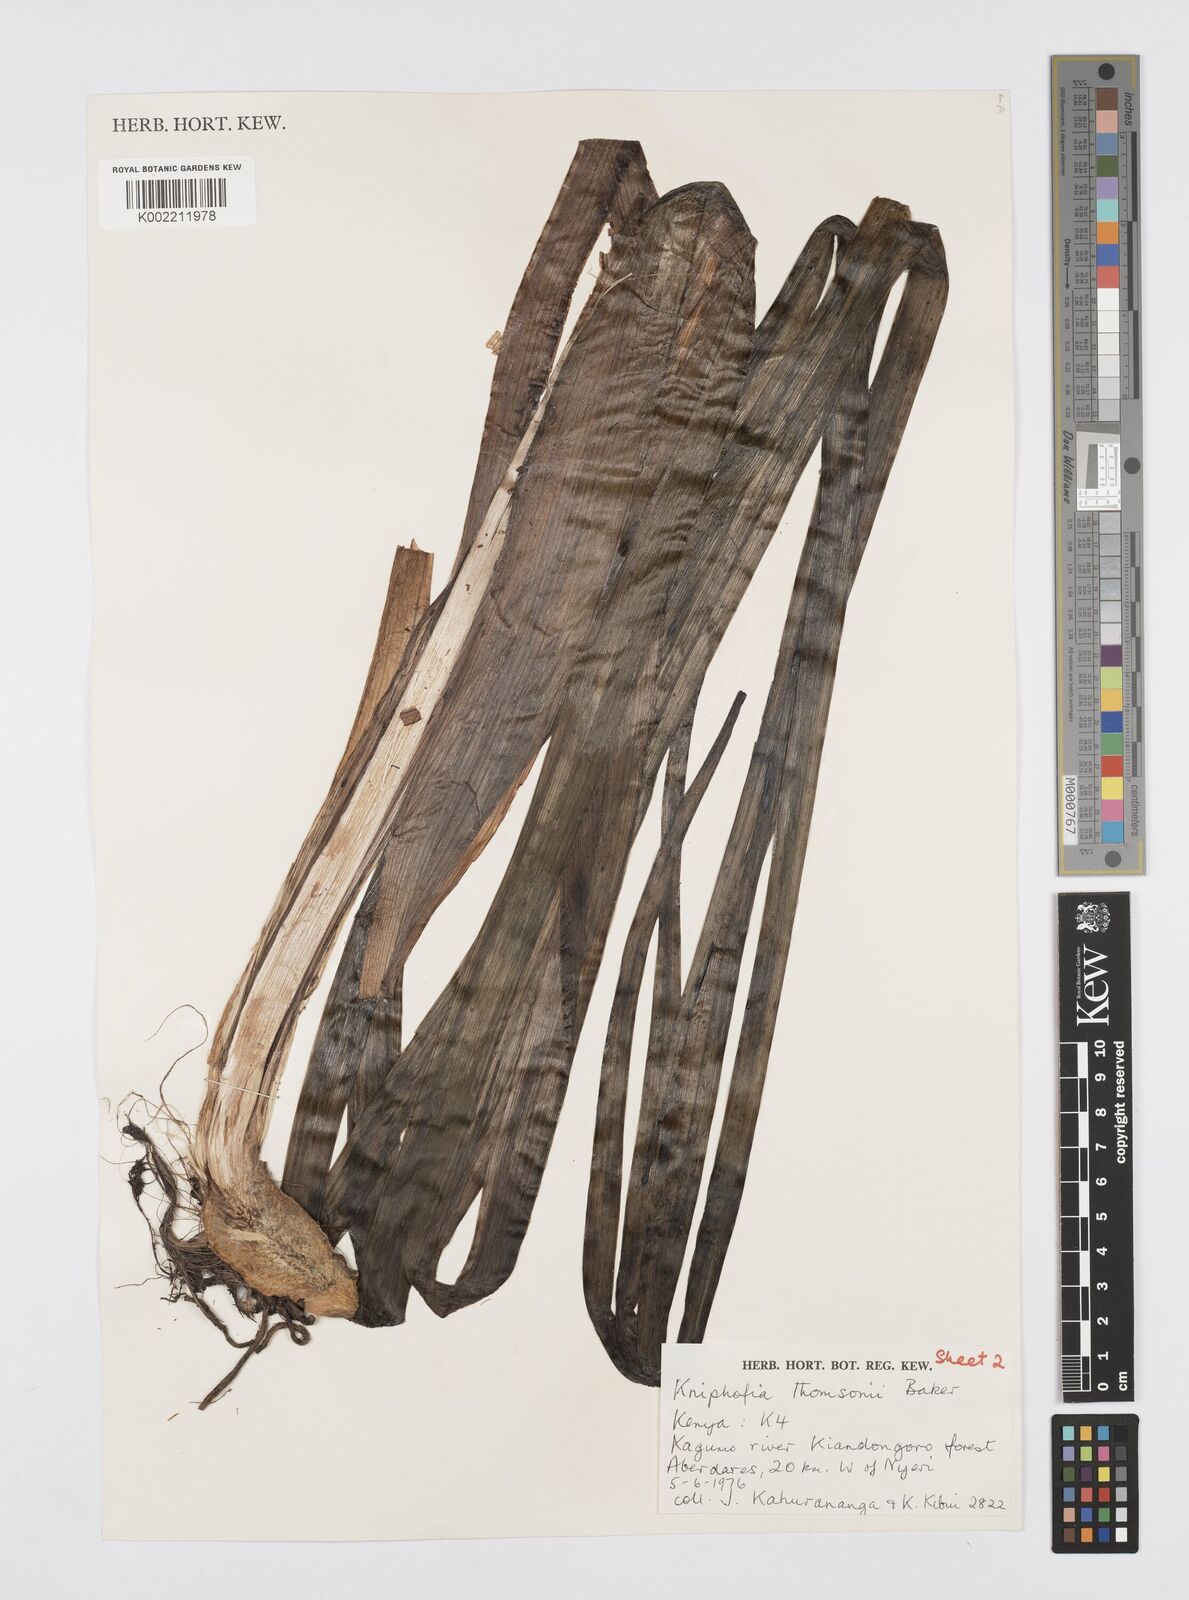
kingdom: Plantae
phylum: Tracheophyta
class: Liliopsida
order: Asparagales
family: Asphodelaceae
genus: Kniphofia
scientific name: Kniphofia thomsonii
